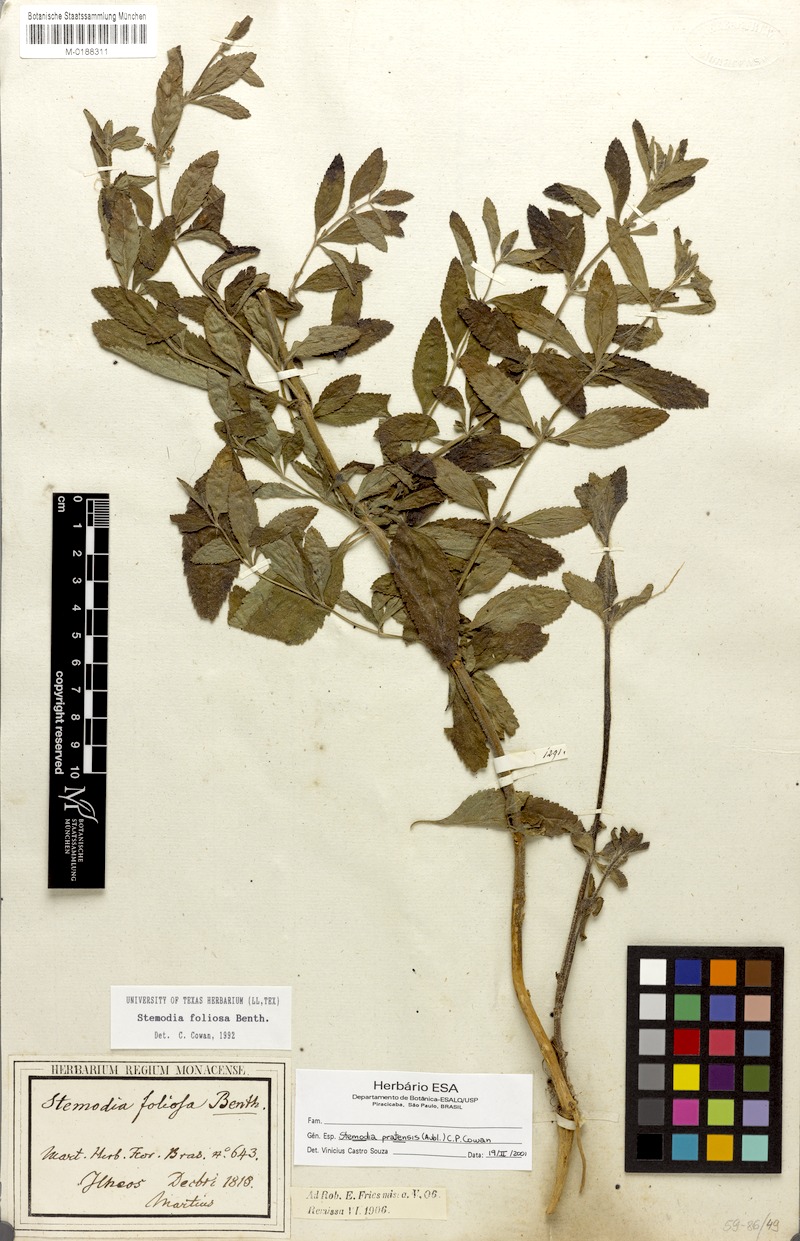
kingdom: Plantae
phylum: Tracheophyta
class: Magnoliopsida
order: Lamiales
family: Plantaginaceae
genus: Matourea
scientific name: Matourea pratensis
